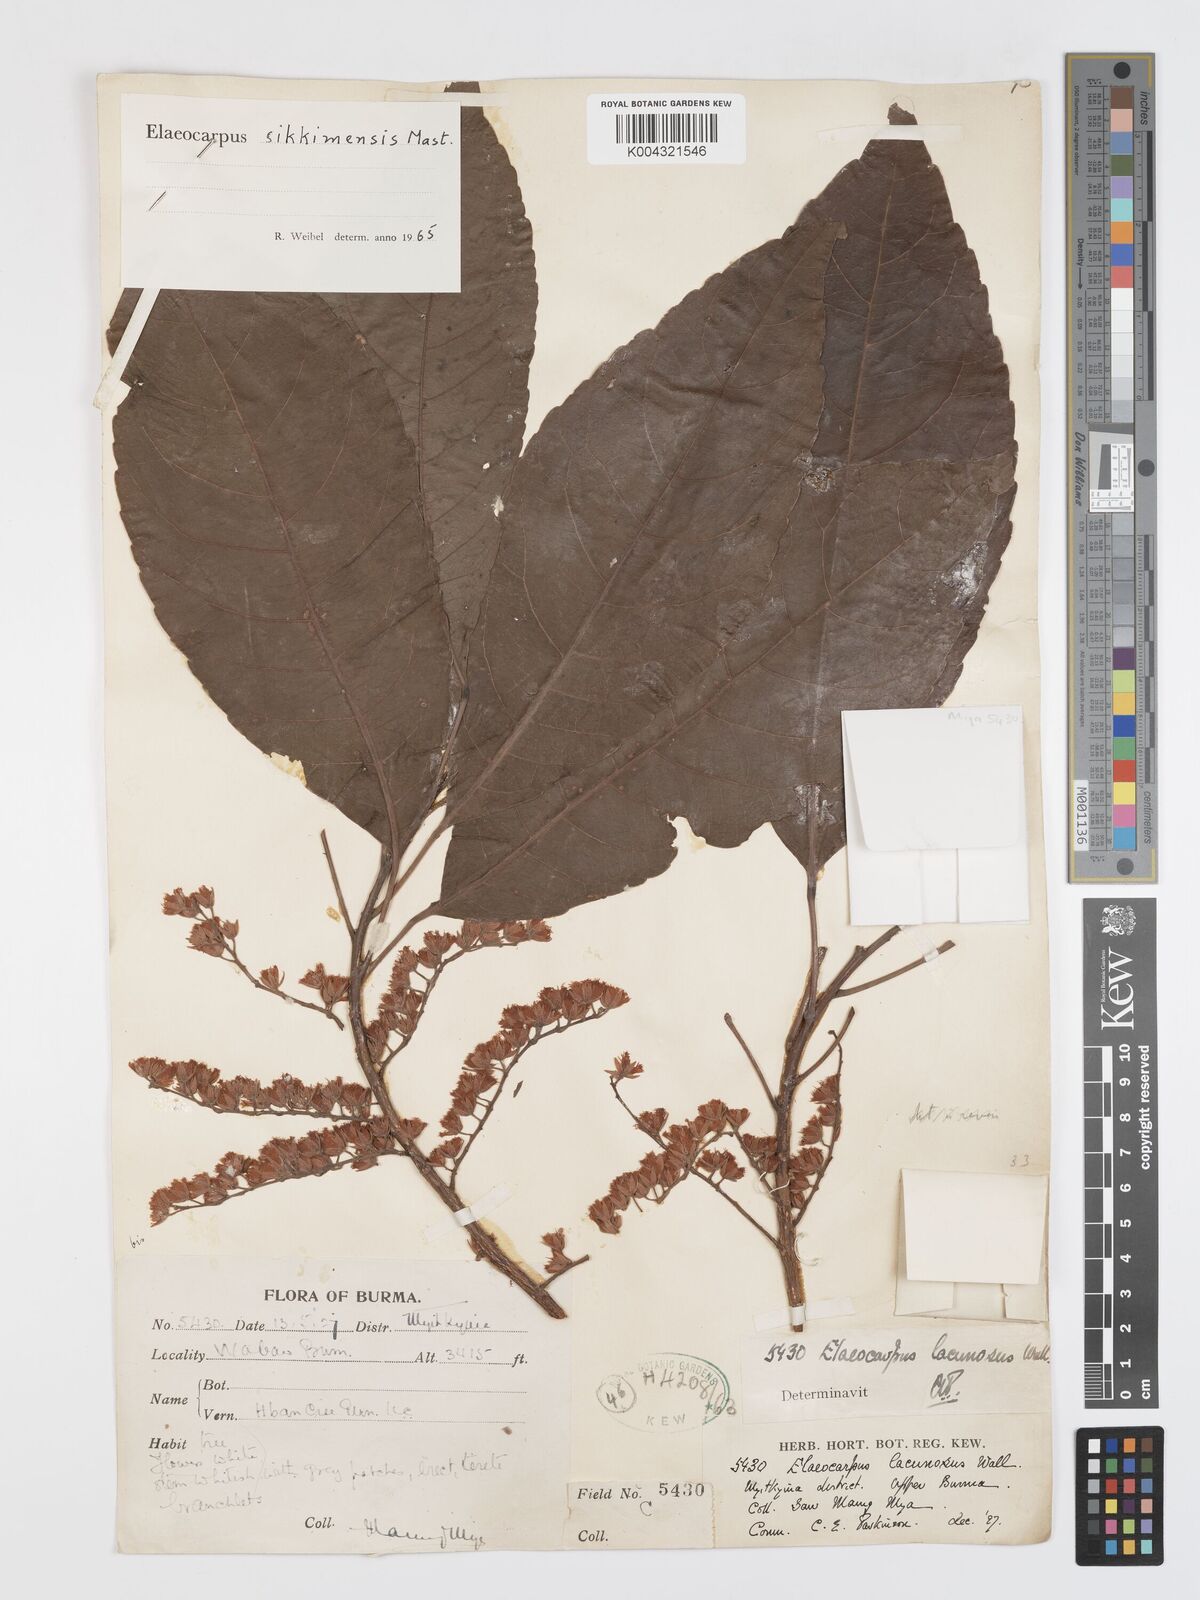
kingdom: Plantae
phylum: Tracheophyta
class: Magnoliopsida
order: Oxalidales
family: Elaeocarpaceae
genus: Elaeocarpus
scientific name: Elaeocarpus sikkimensis
